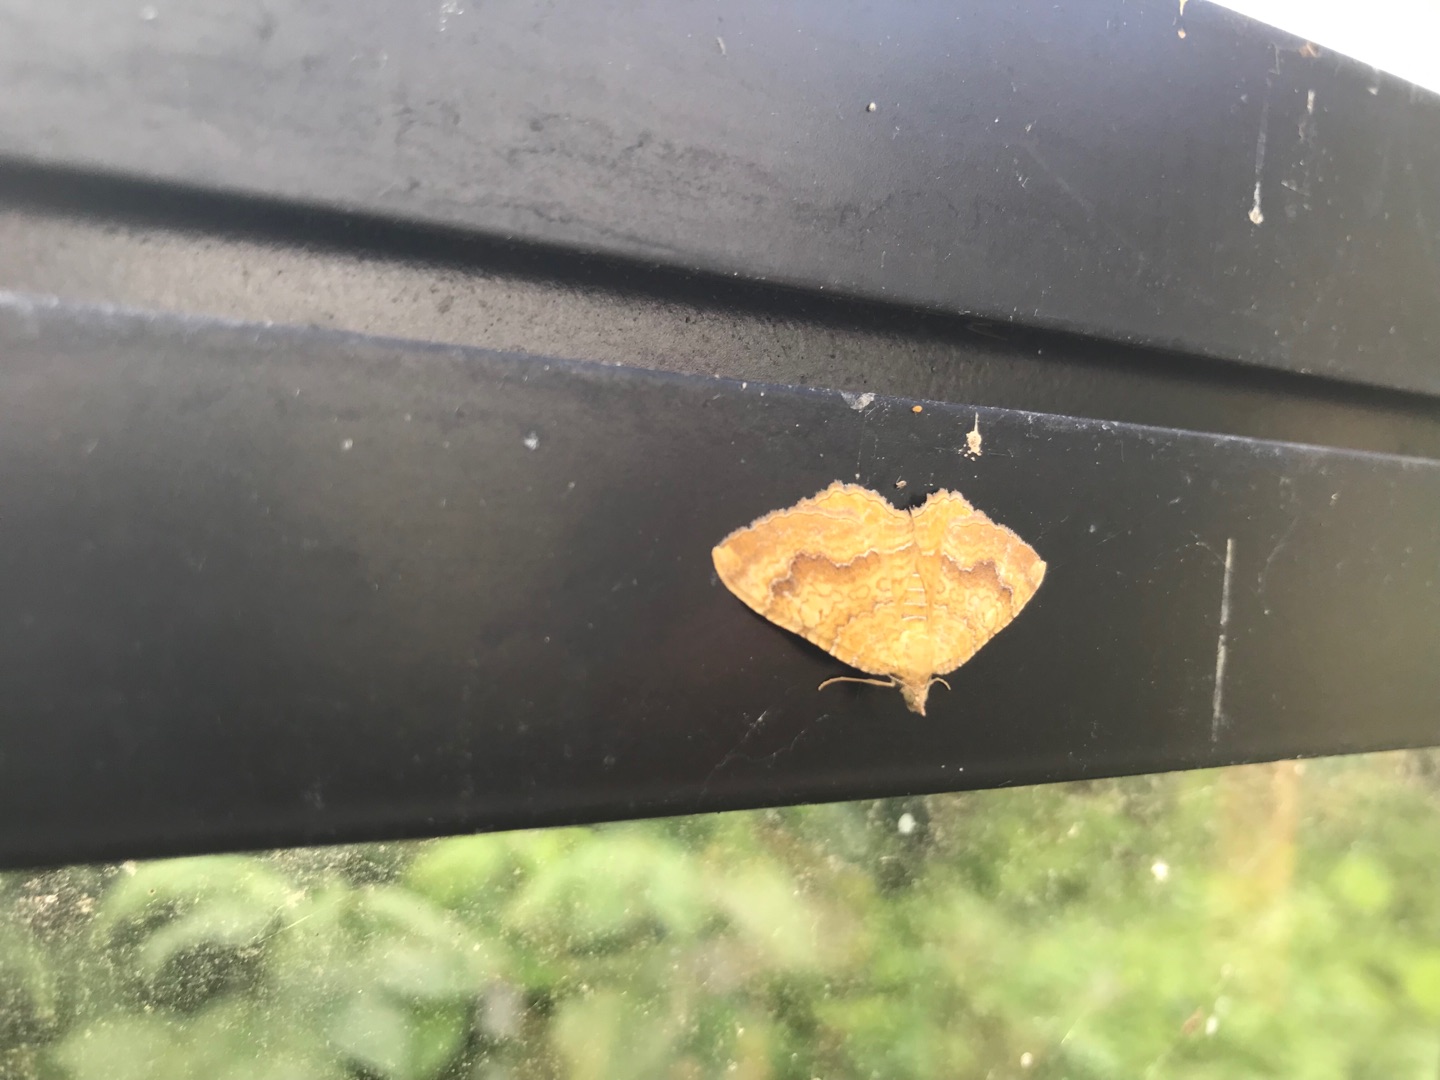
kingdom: Animalia
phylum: Arthropoda
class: Insecta
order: Lepidoptera
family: Geometridae
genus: Camptogramma
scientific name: Camptogramma bilineata
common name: Okkergul bladmåler
